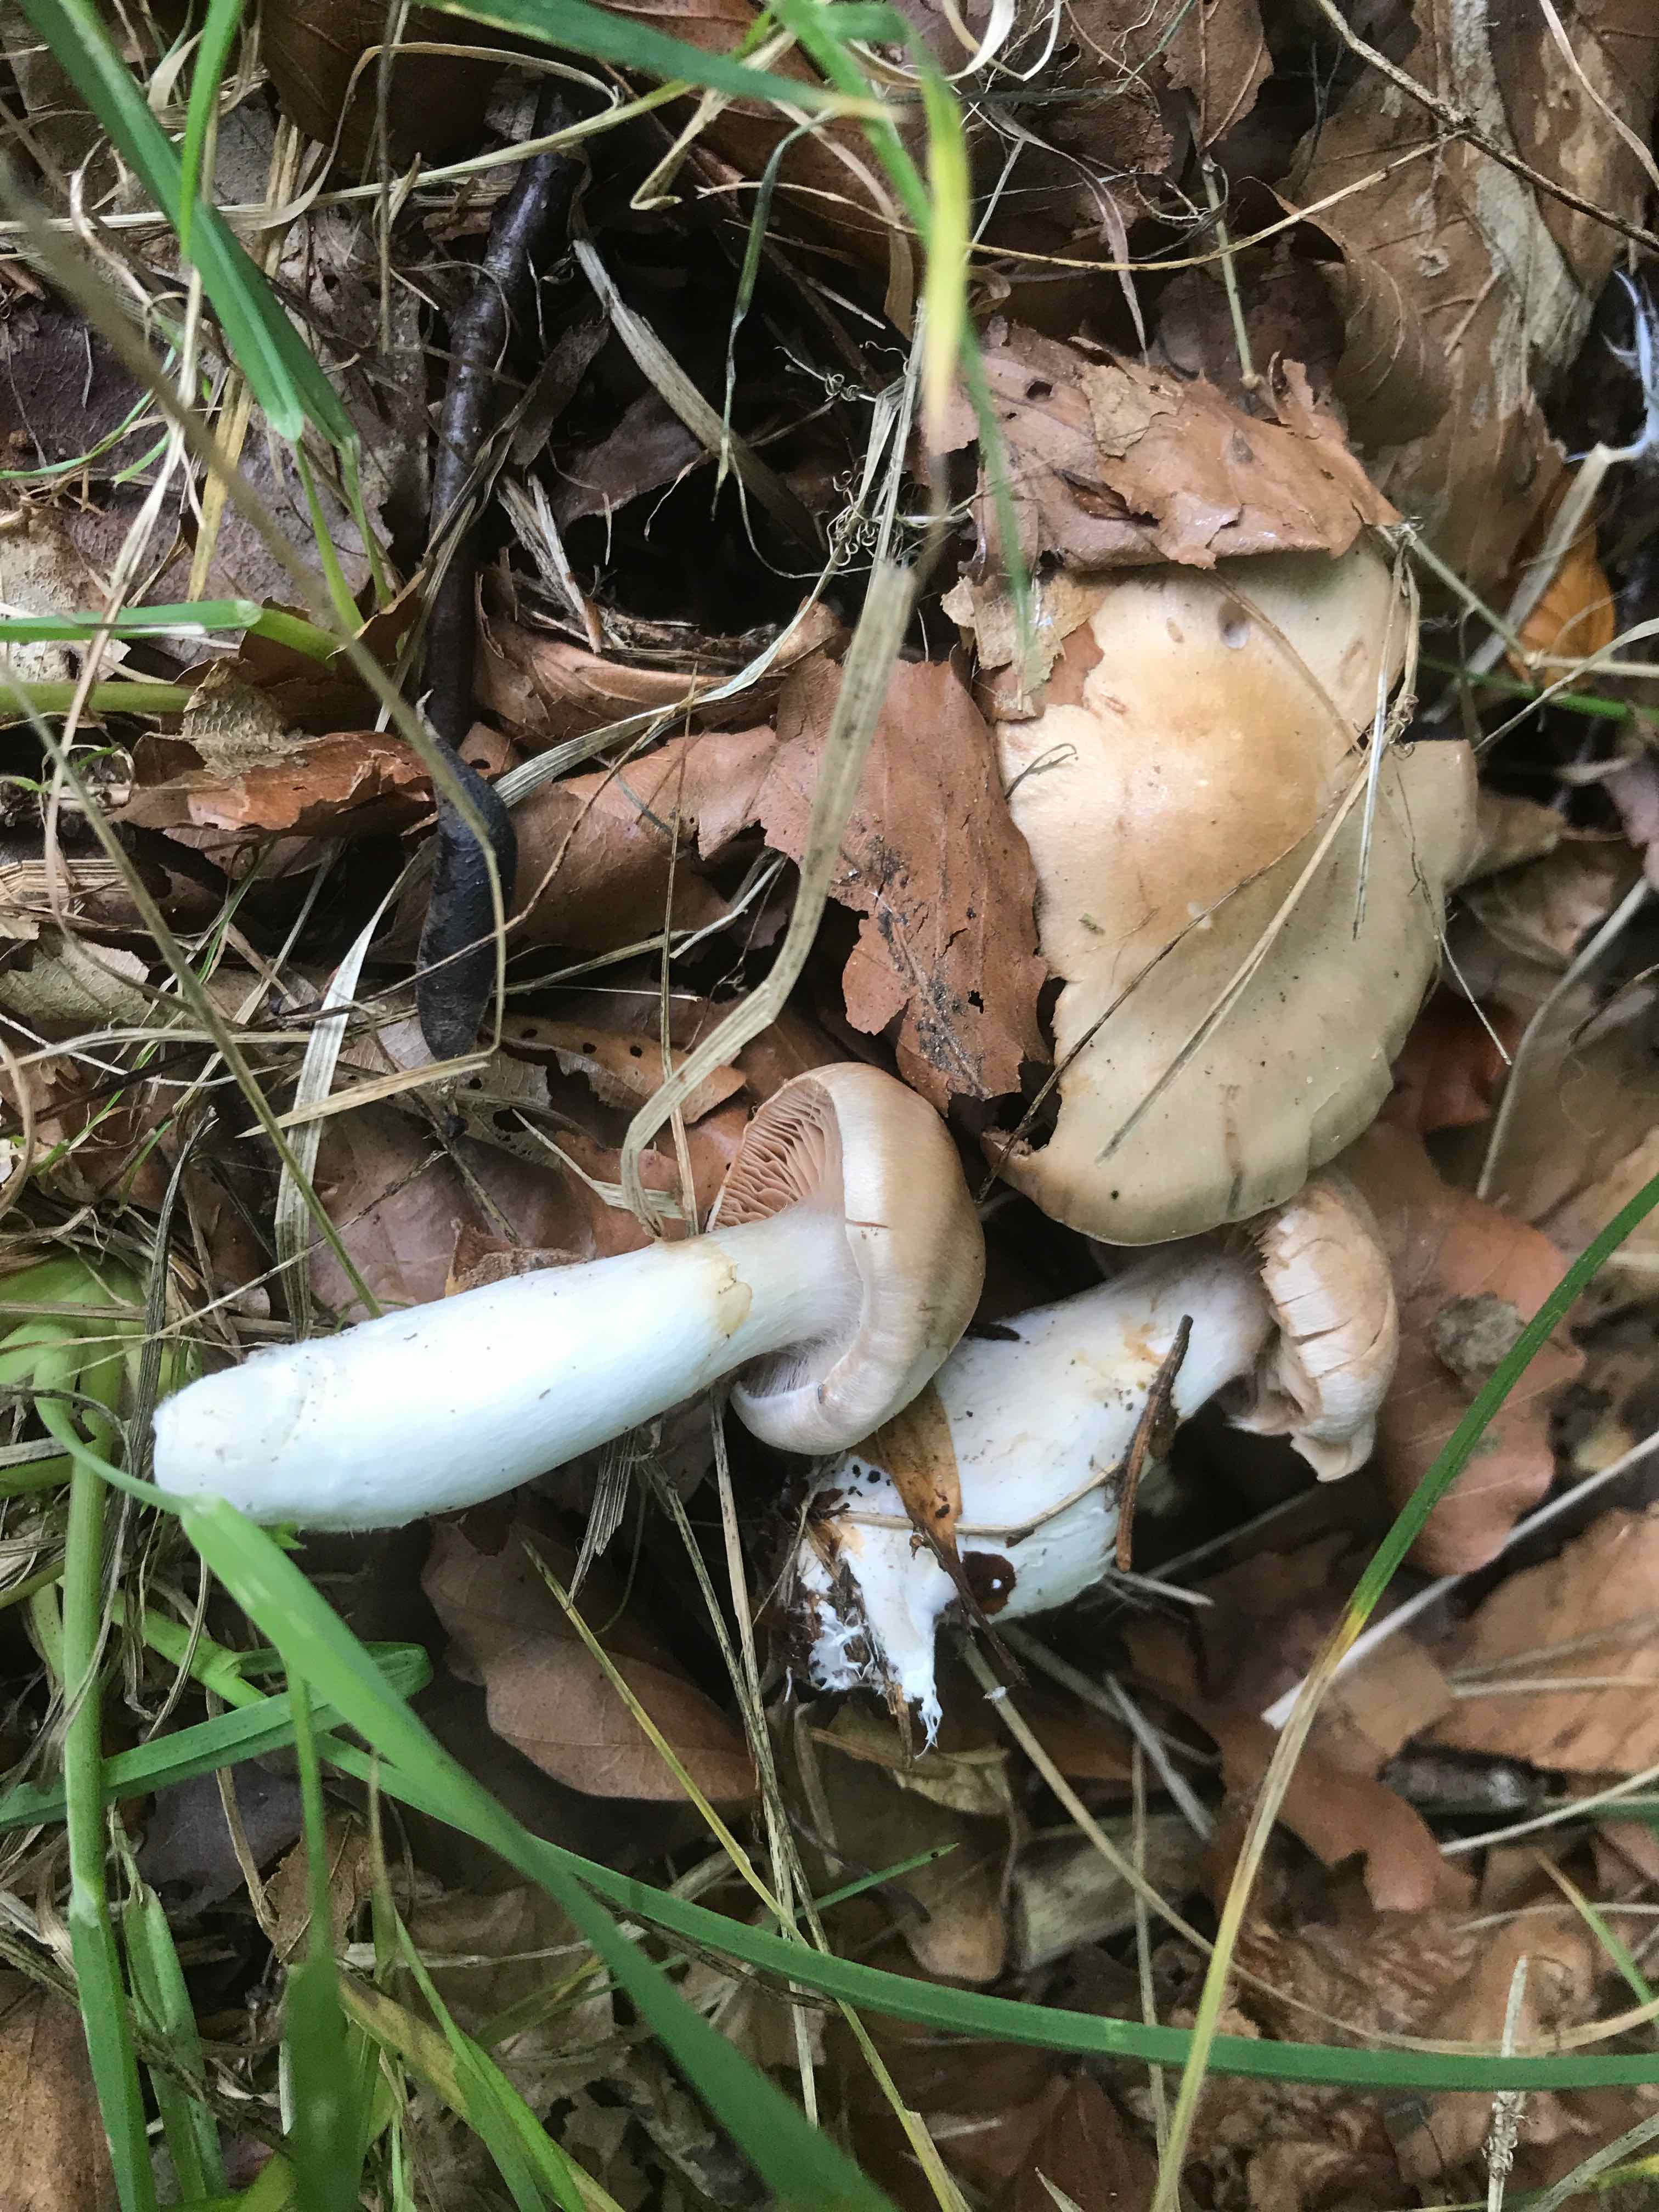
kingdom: Fungi
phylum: Basidiomycota
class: Agaricomycetes
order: Agaricales
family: Cortinariaceae
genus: Cortinarius
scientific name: Cortinarius torvus
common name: champignonagtig slørhat
